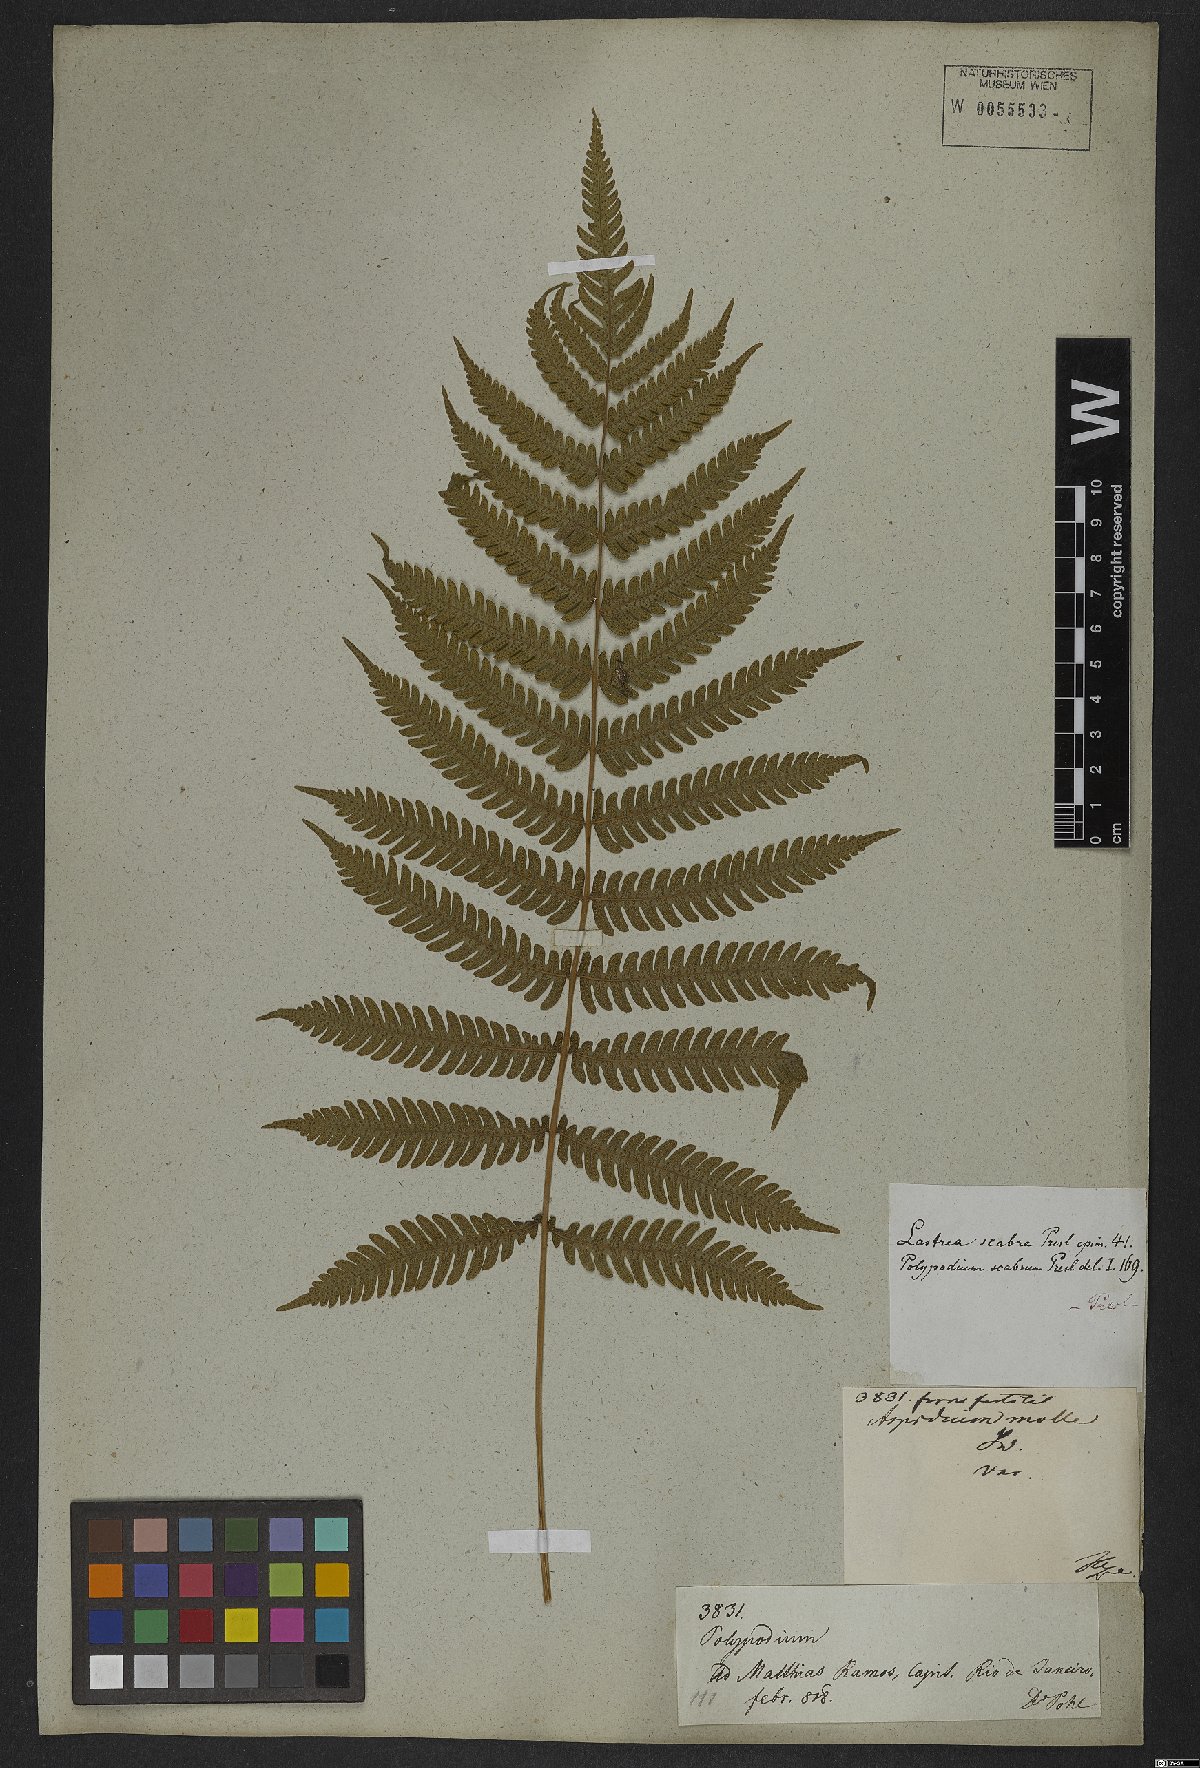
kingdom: Plantae
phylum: Tracheophyta
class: Polypodiopsida
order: Polypodiales
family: Thelypteridaceae
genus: Christella
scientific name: Christella parasitica
